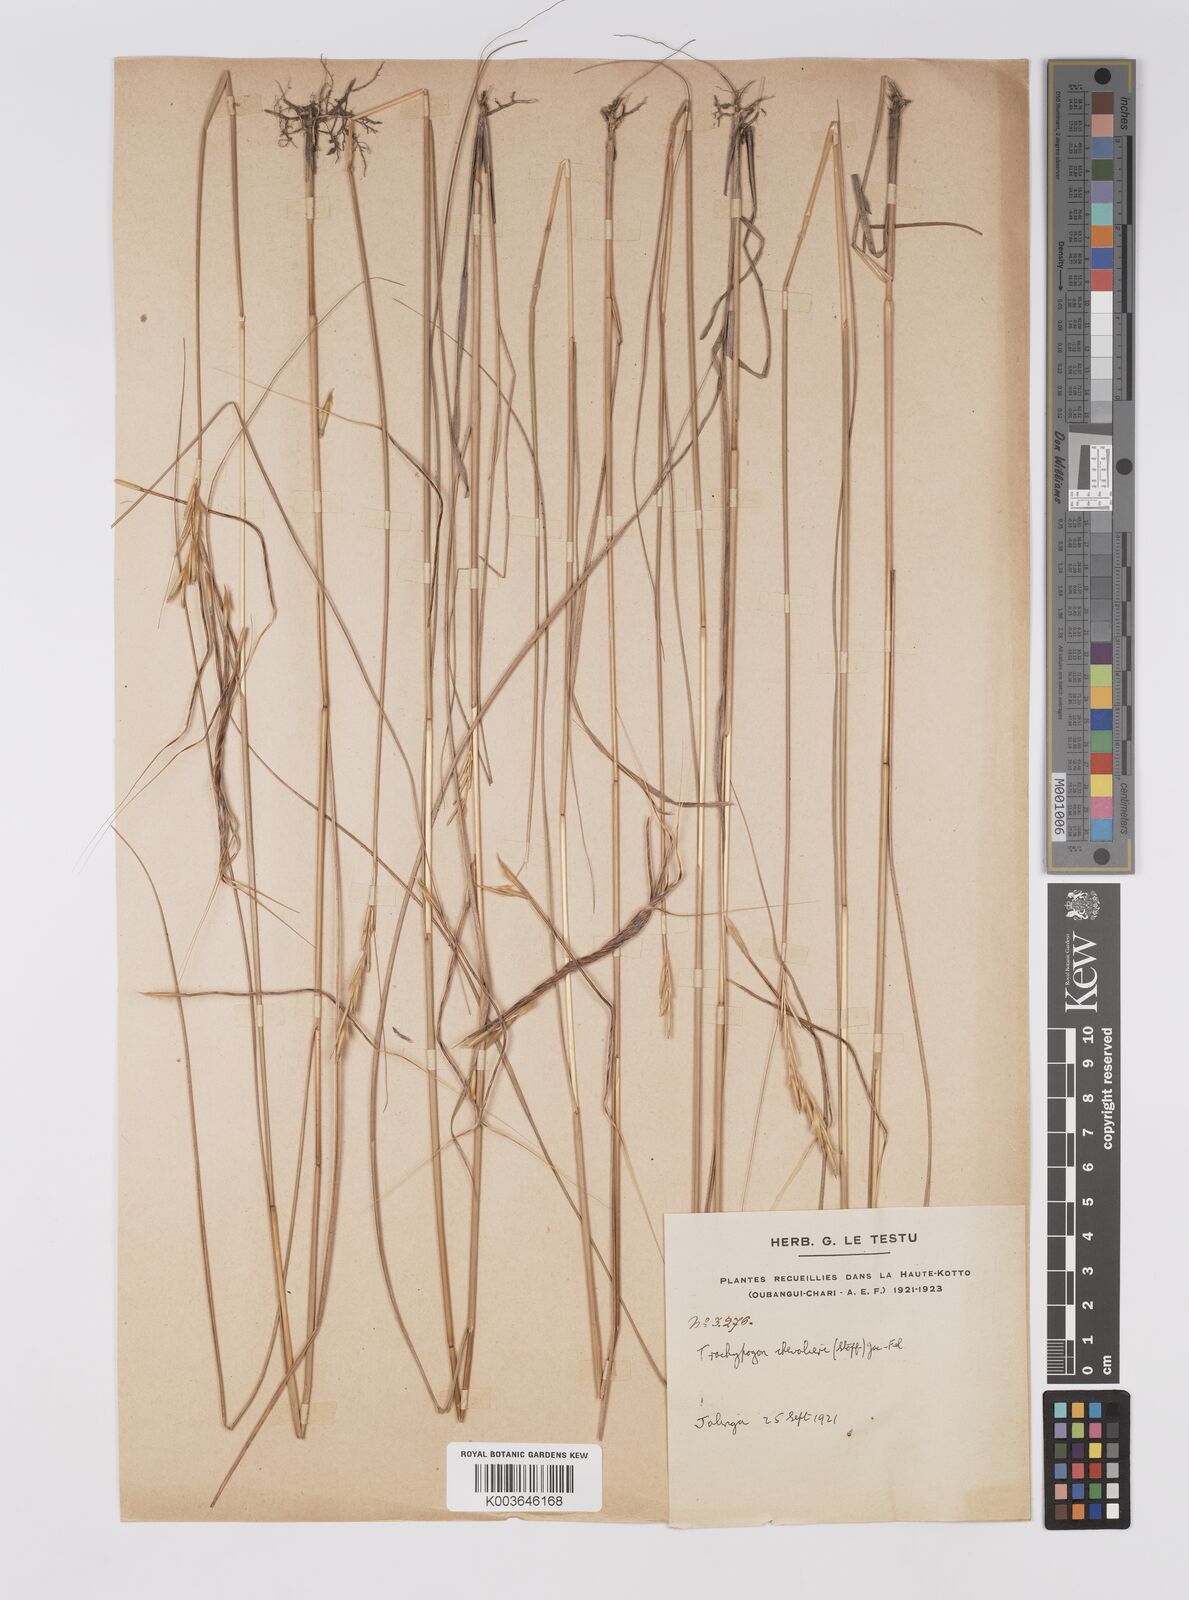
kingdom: Plantae
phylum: Tracheophyta
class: Liliopsida
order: Poales
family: Poaceae
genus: Trachypogon
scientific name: Trachypogon chevalieri
